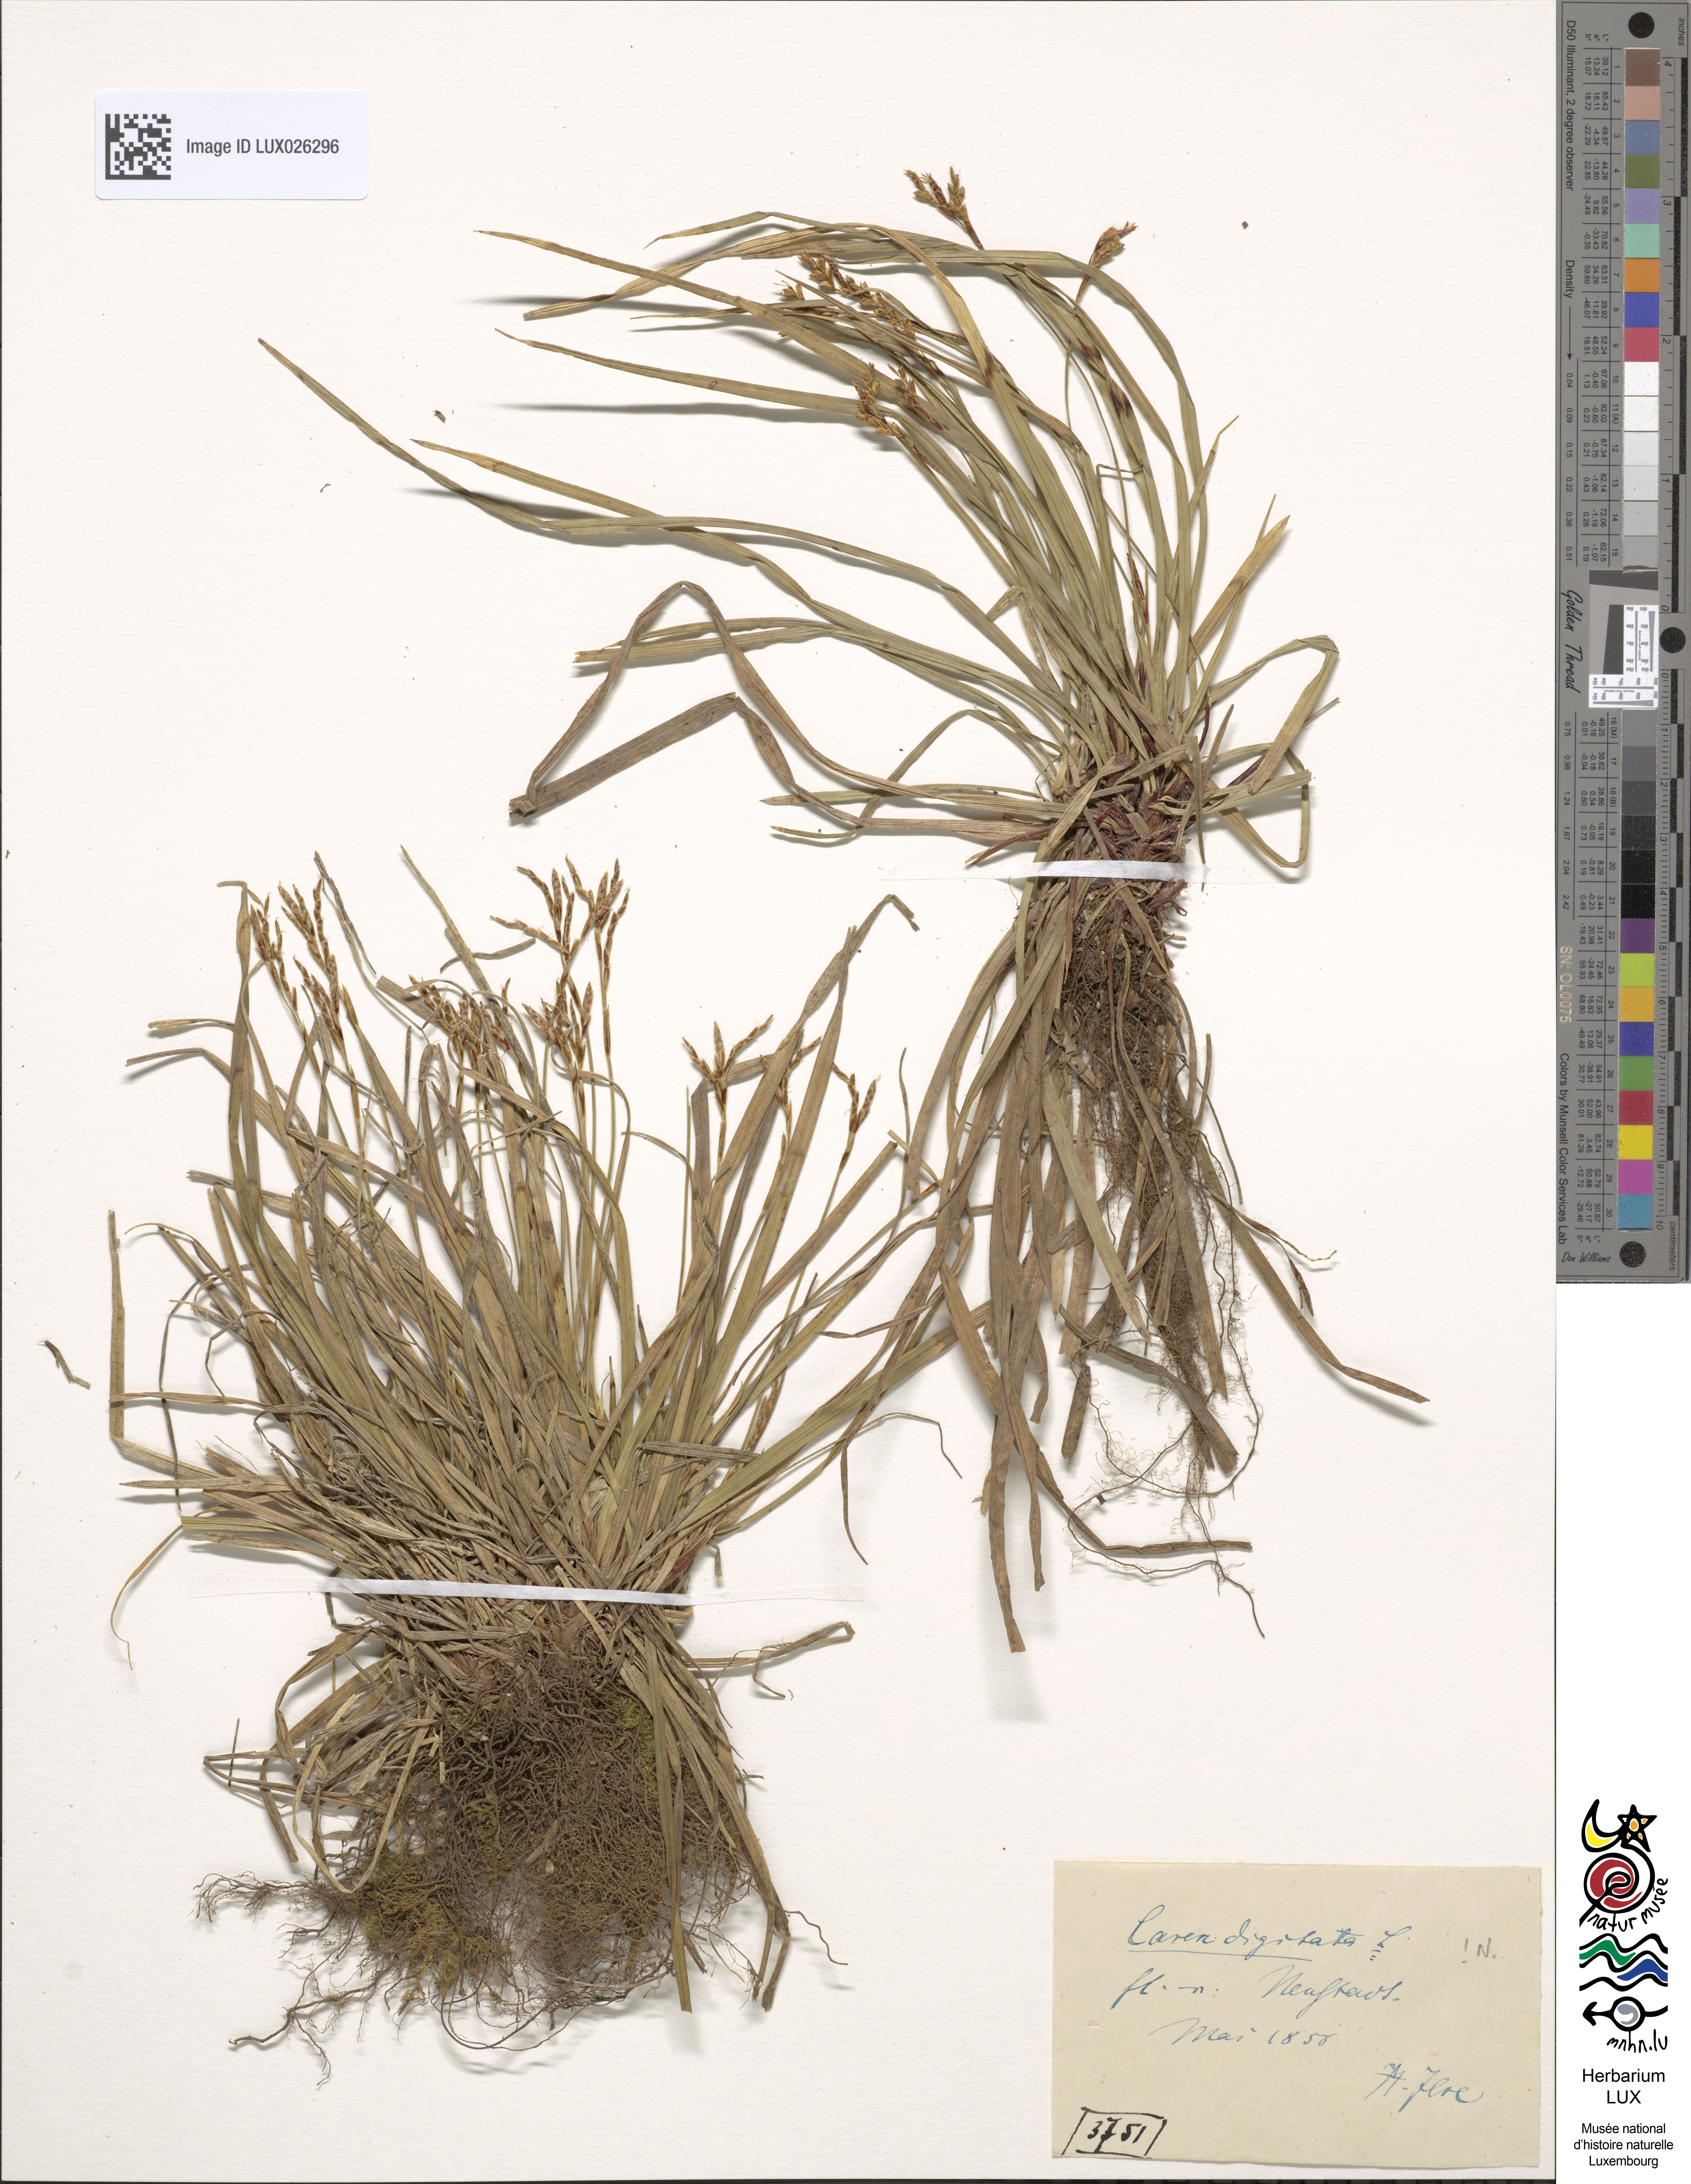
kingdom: Plantae
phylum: Tracheophyta
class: Liliopsida
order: Poales
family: Cyperaceae
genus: Carex
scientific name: Carex digitata
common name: Fingered sedge
